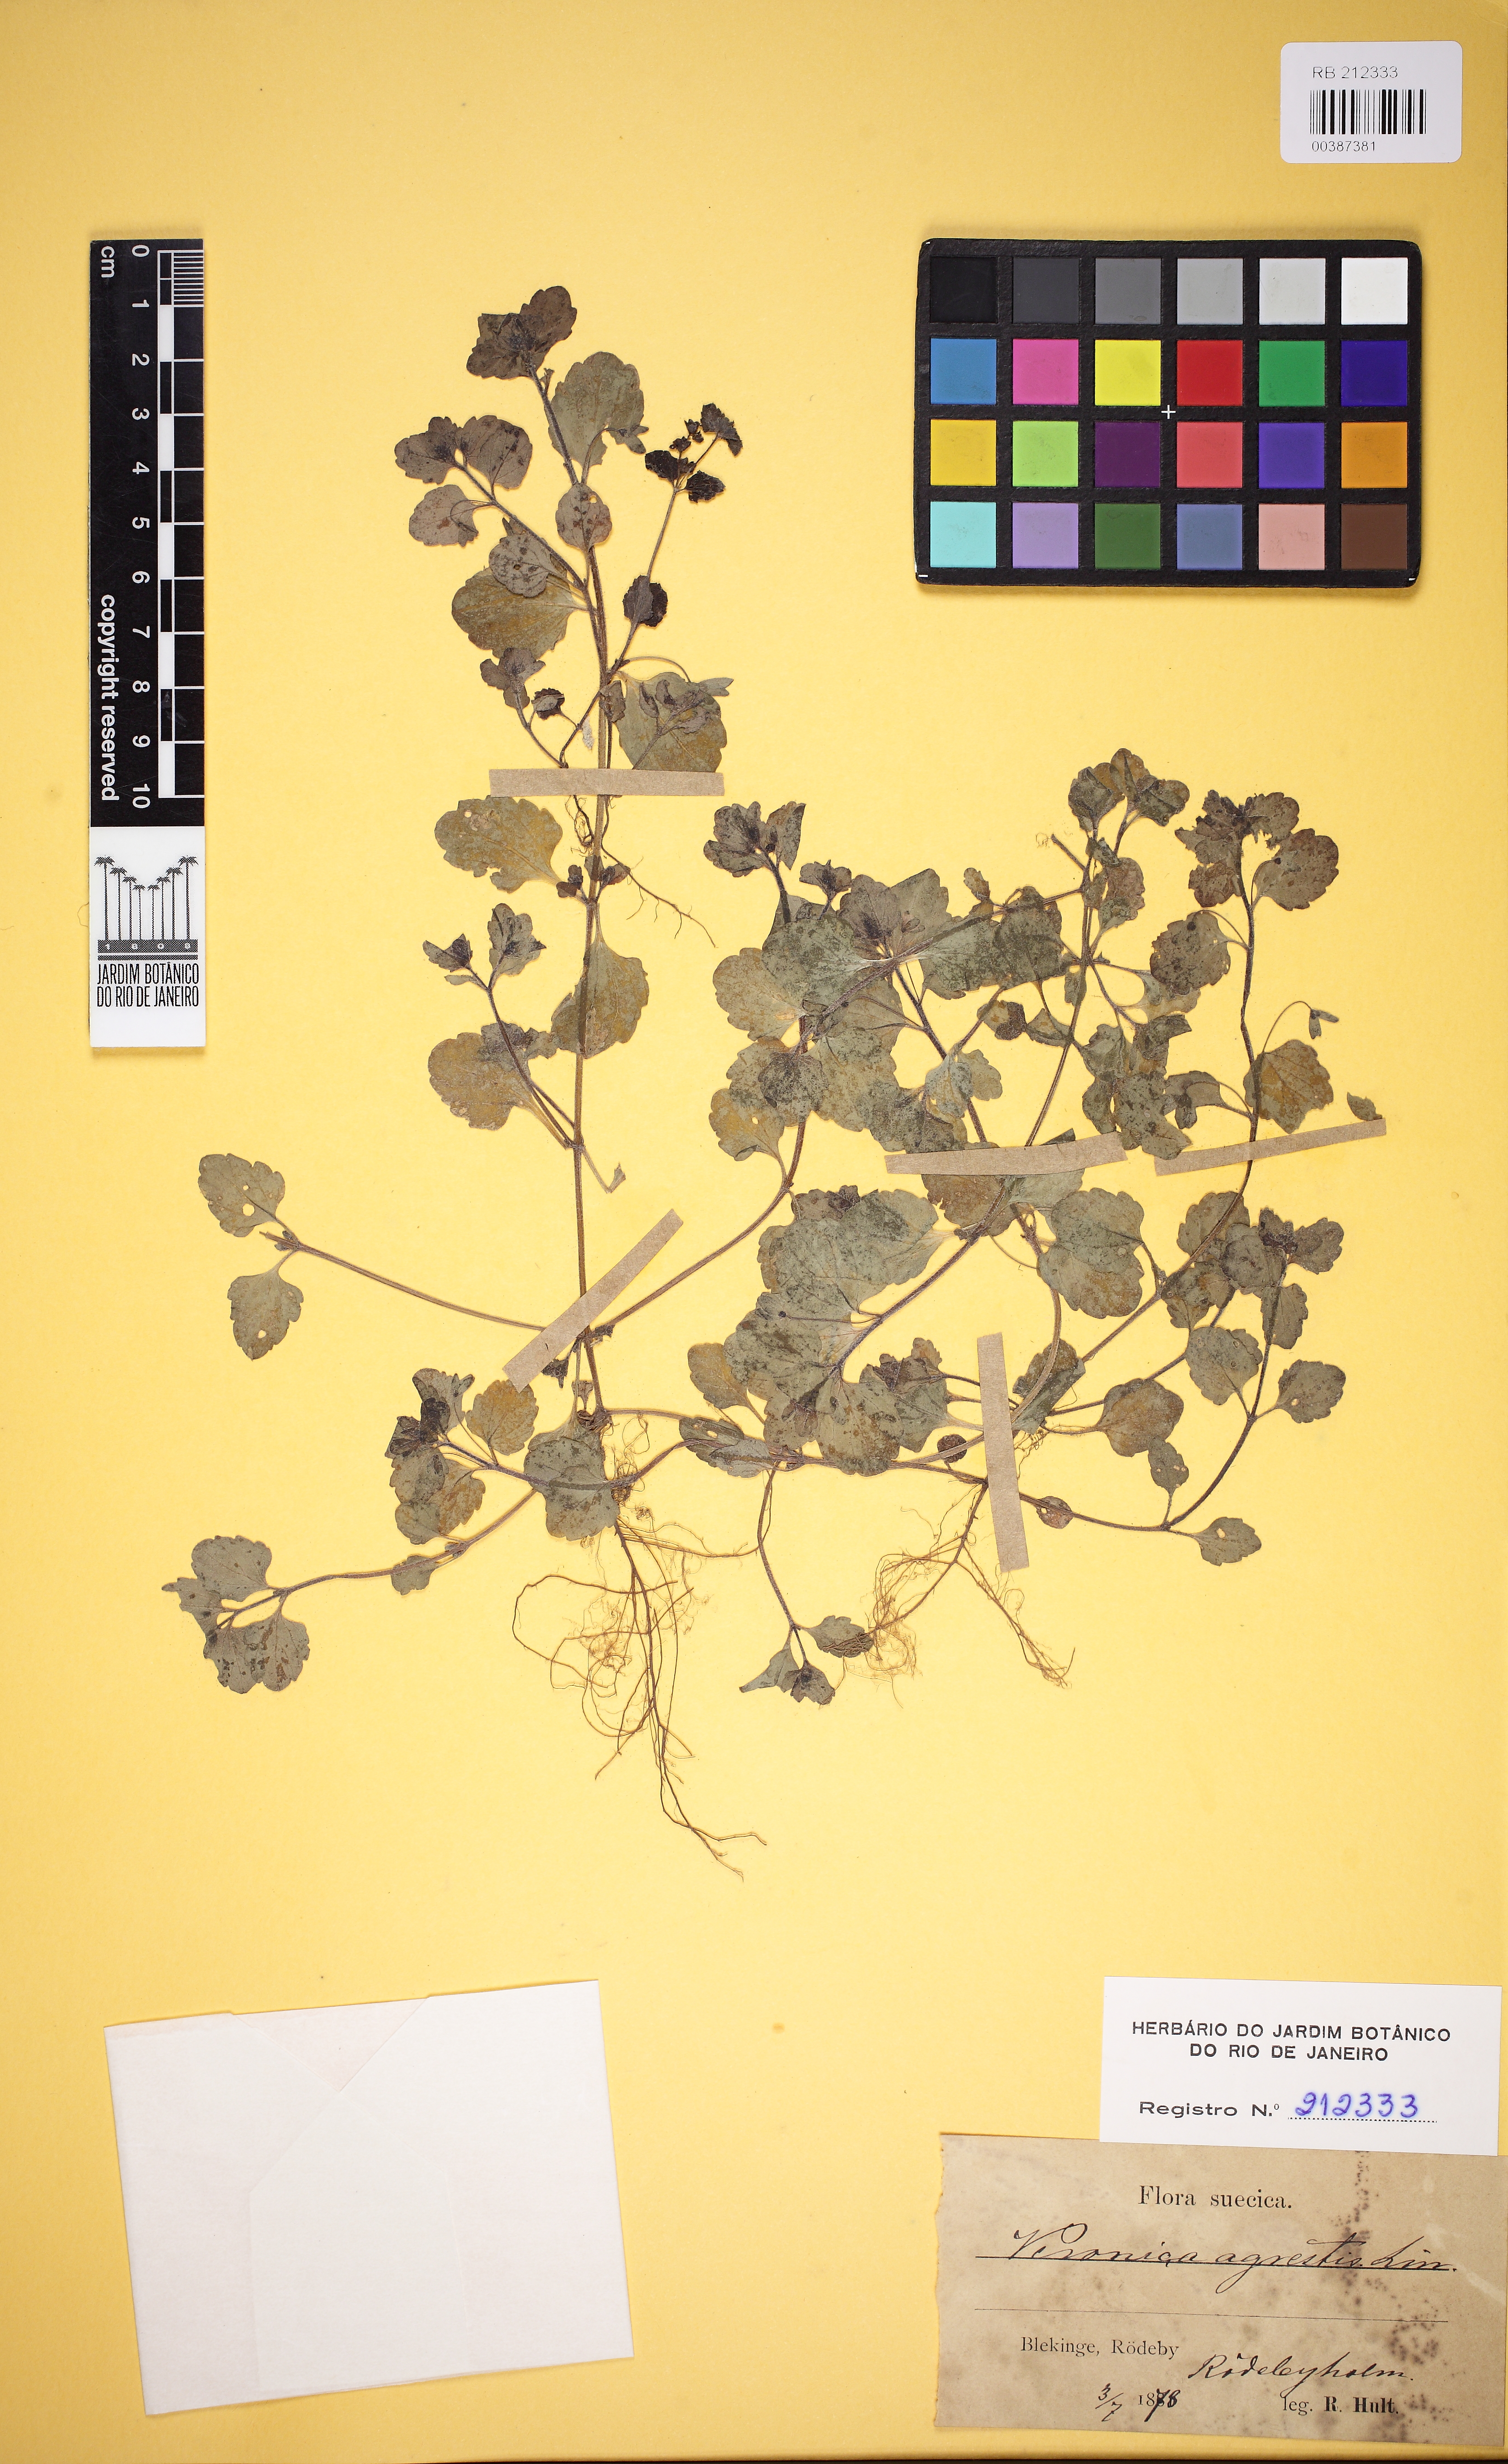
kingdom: Plantae
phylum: Tracheophyta
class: Magnoliopsida
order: Lamiales
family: Scrophulariaceae
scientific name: Scrophulariaceae
